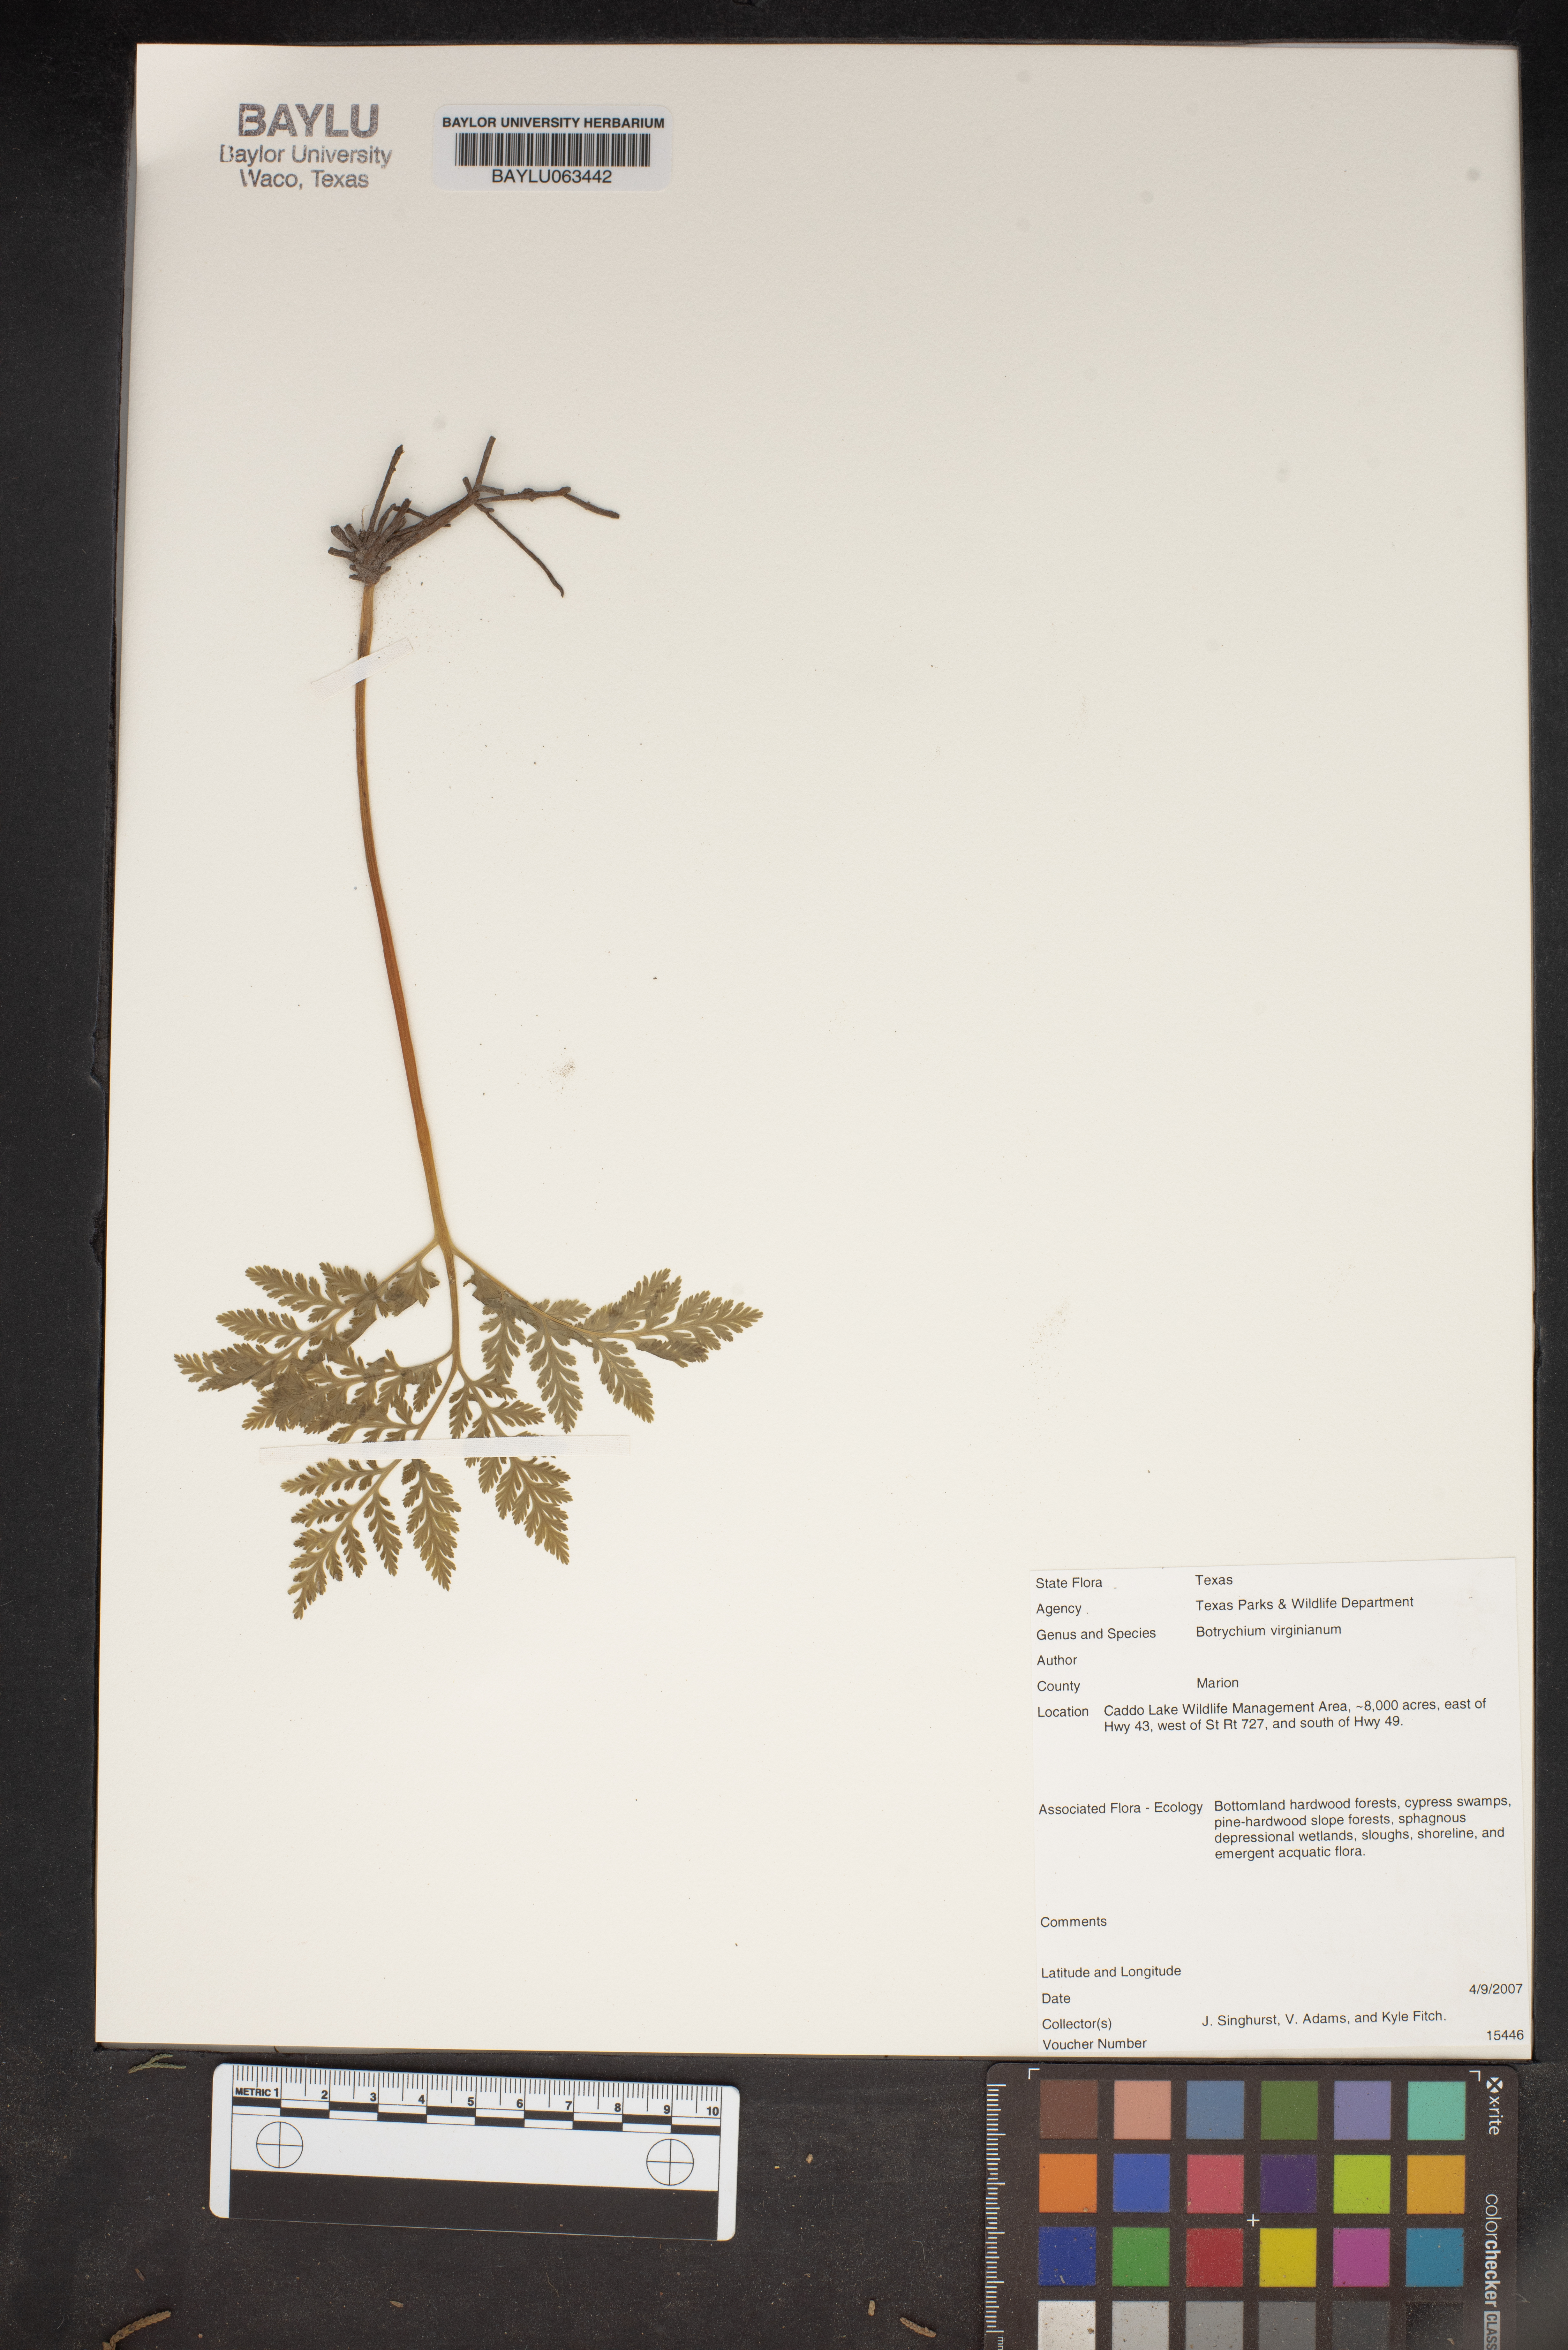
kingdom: Plantae
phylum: Tracheophyta
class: Polypodiopsida
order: Ophioglossales
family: Ophioglossaceae
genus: Botrypus
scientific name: Botrypus virginianus
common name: Common grapefern
